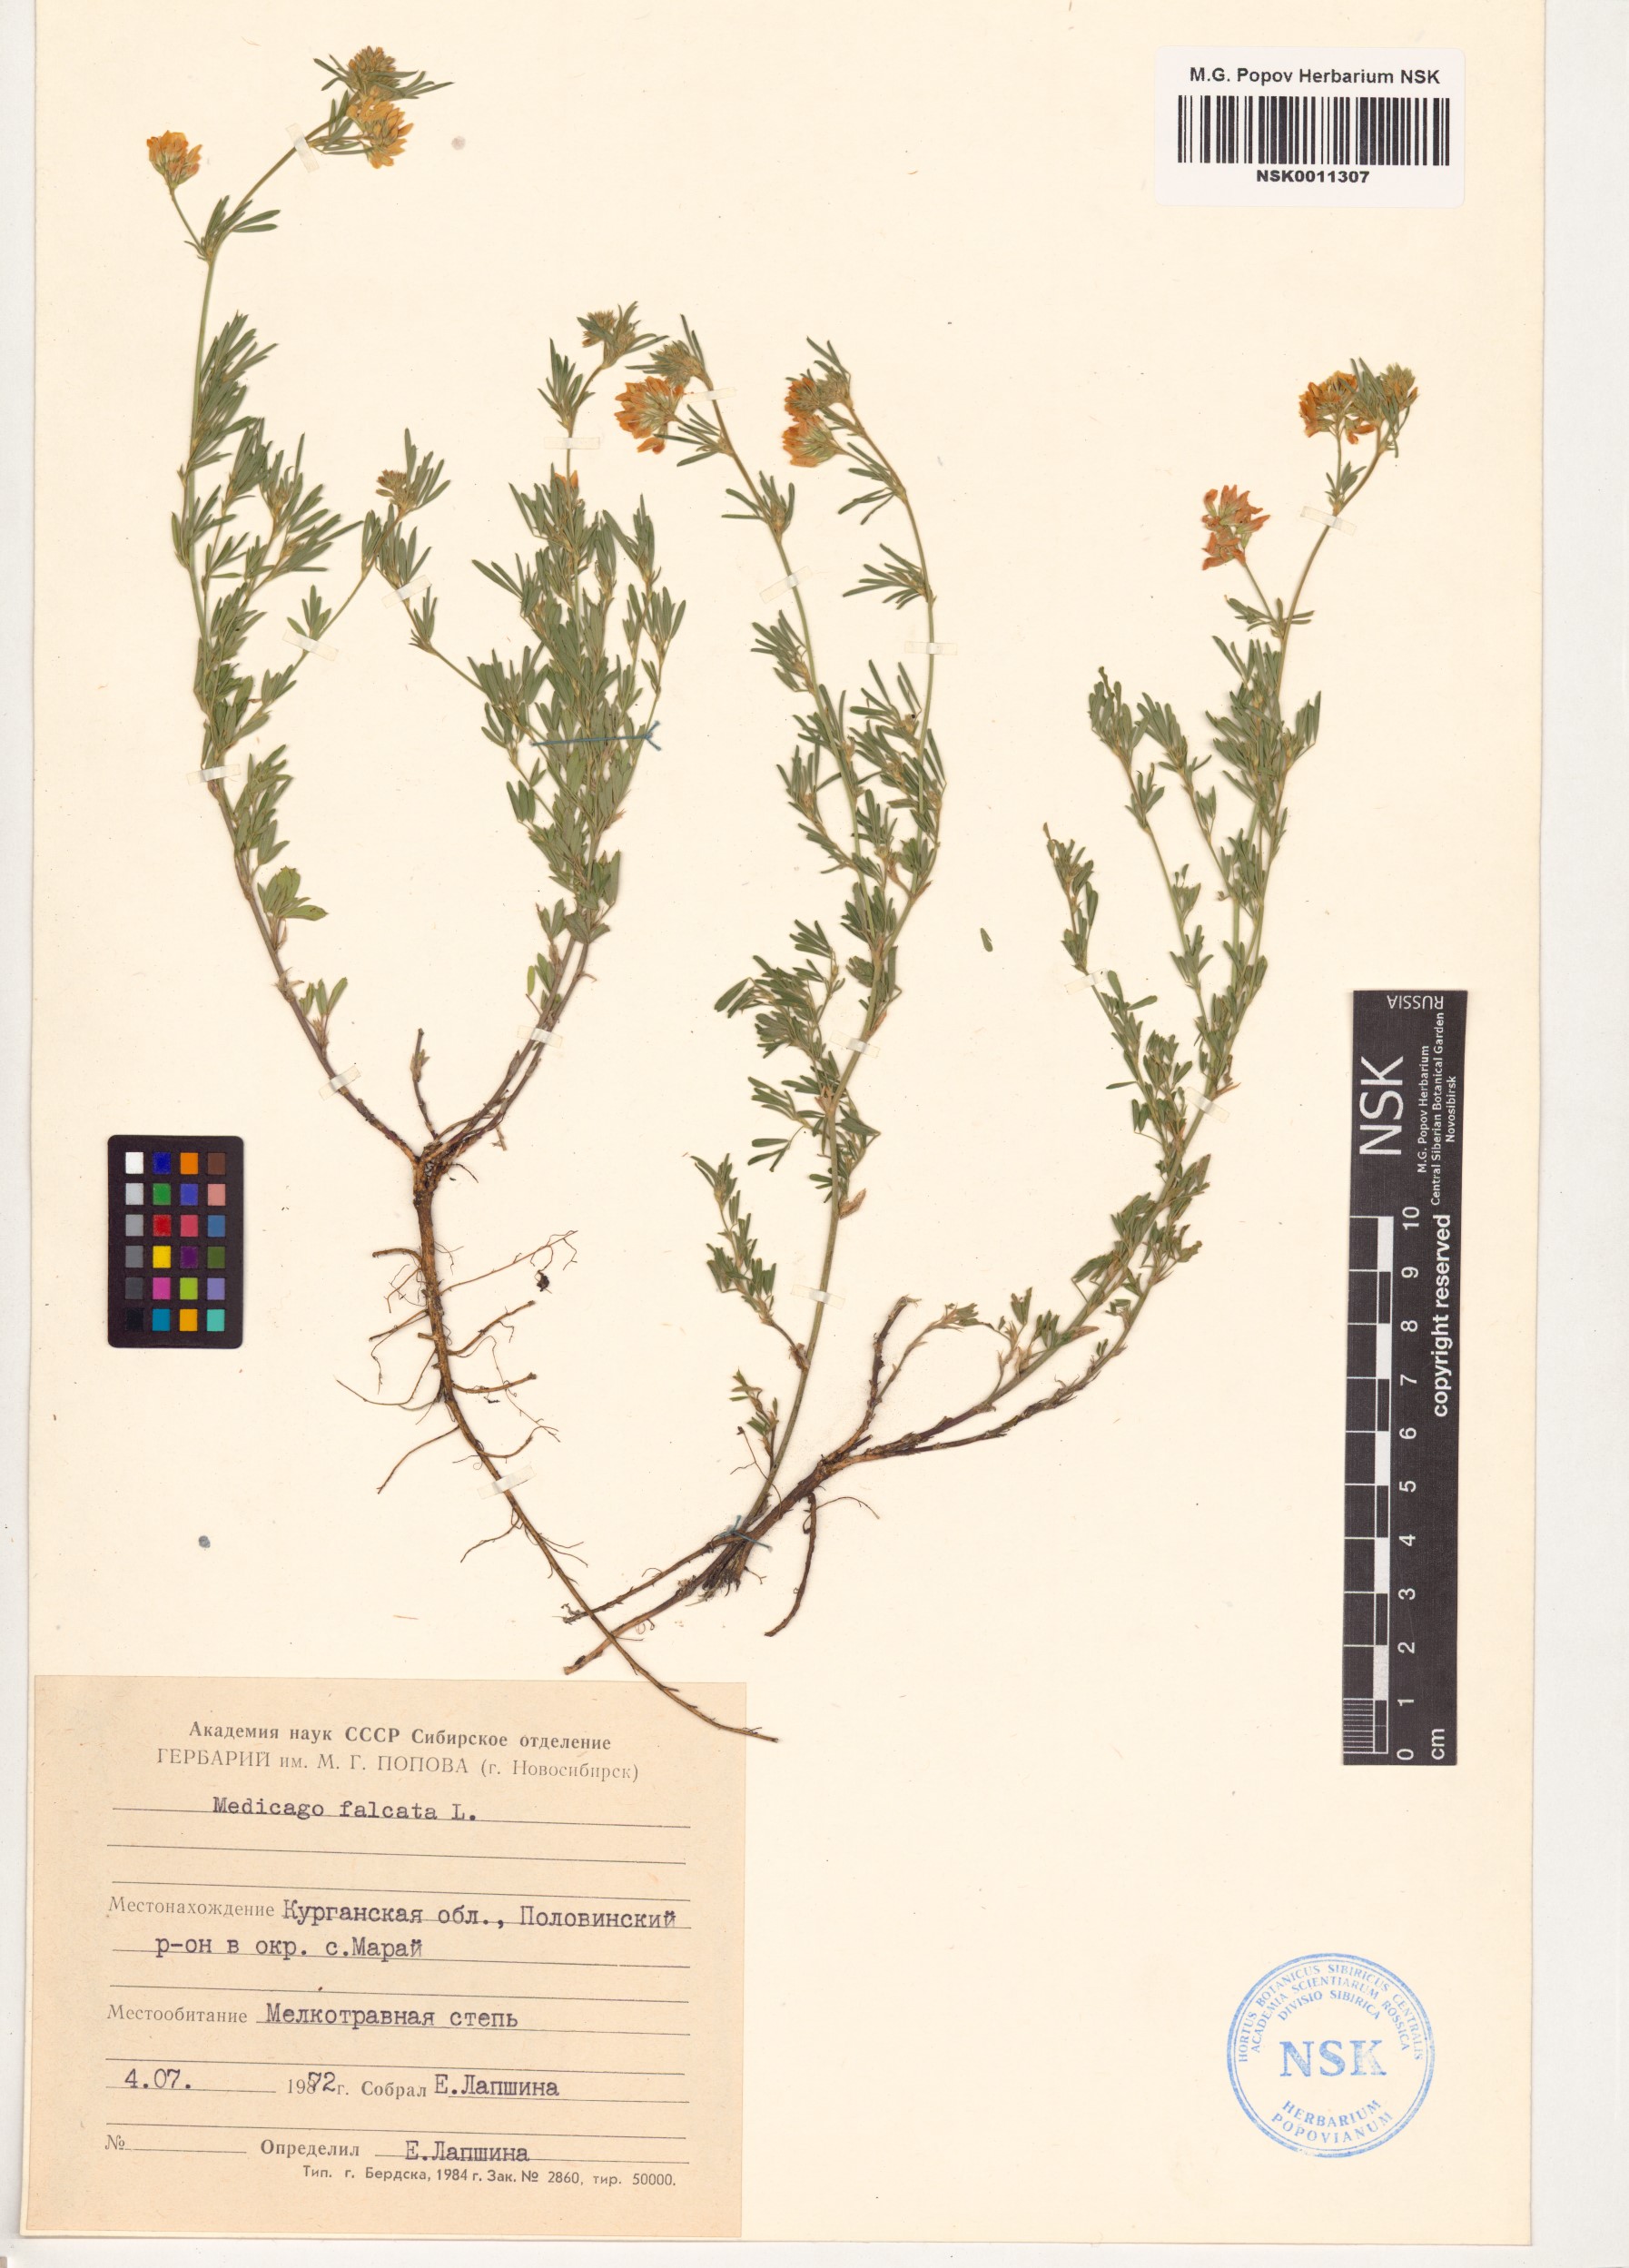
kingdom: Plantae
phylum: Tracheophyta
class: Magnoliopsida
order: Fabales
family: Fabaceae
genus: Medicago
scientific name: Medicago falcata
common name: Sickle medick
